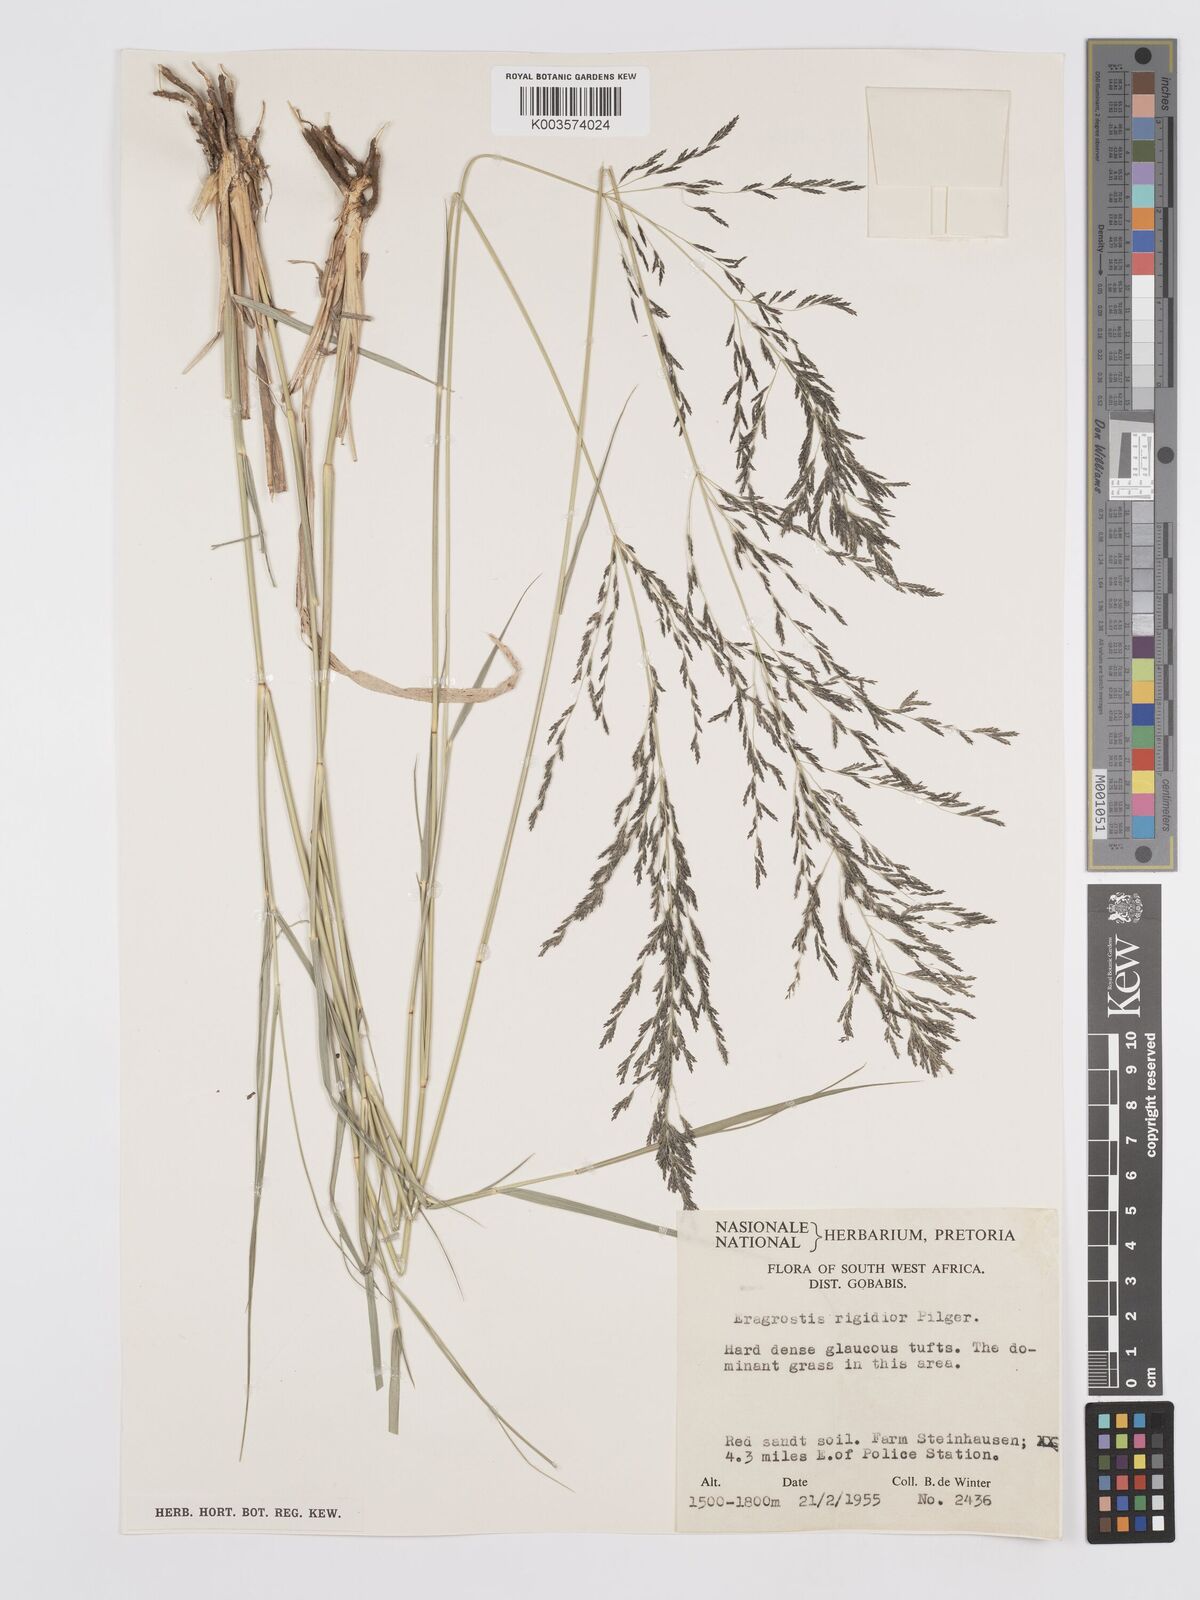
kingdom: Plantae
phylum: Tracheophyta
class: Liliopsida
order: Poales
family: Poaceae
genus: Eragrostis
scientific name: Eragrostis cylindriflora
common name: Cylinderflower lovegrass
